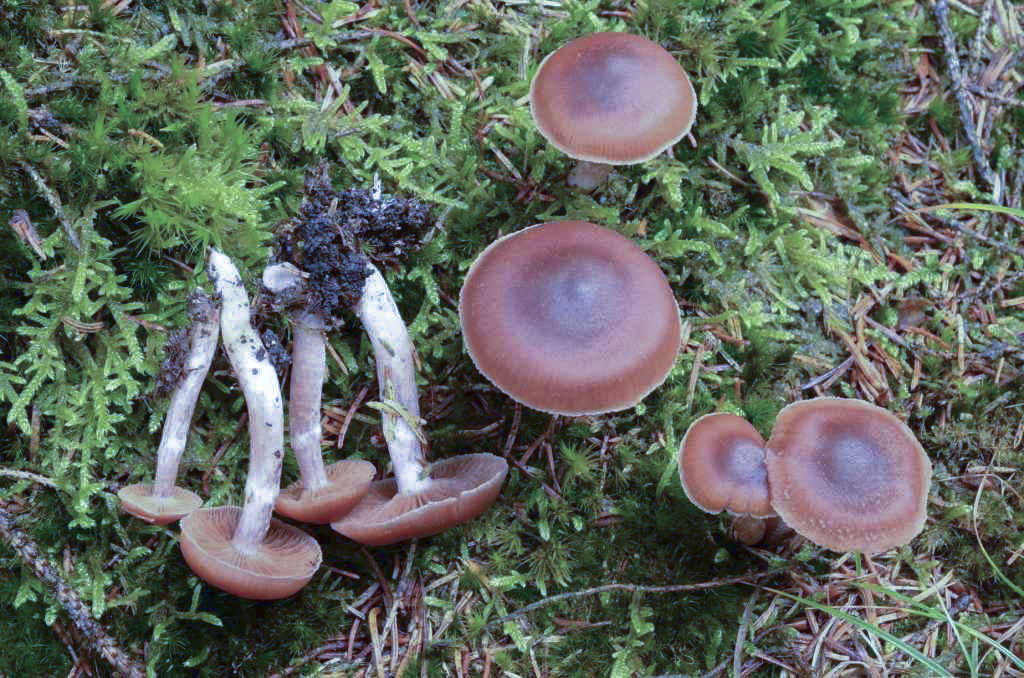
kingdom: Fungi
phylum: Basidiomycota
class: Agaricomycetes
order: Agaricales
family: Cortinariaceae
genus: Cortinarius
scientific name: Cortinarius
